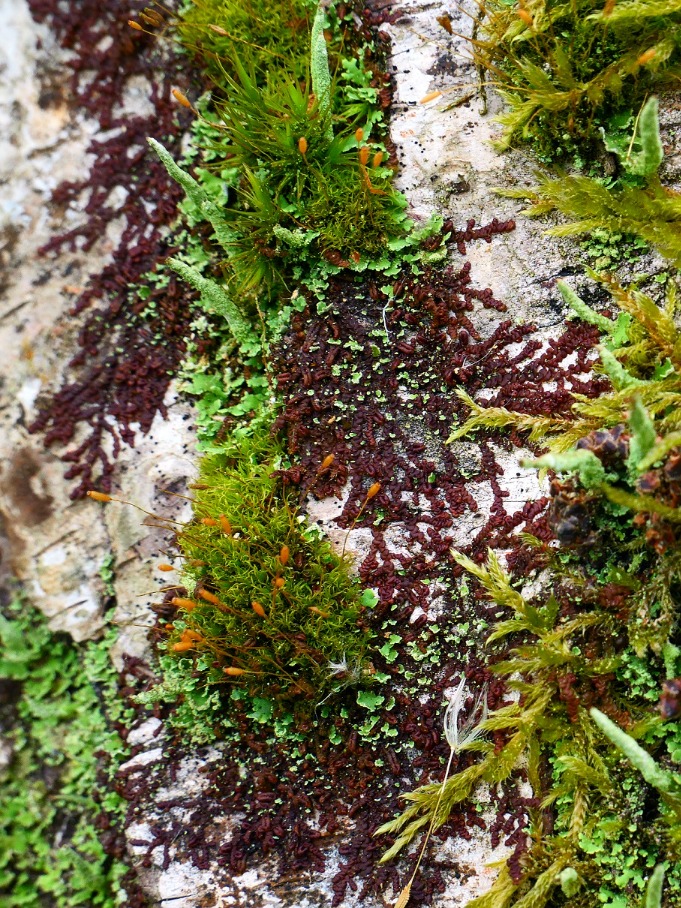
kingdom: Plantae
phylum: Marchantiophyta
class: Jungermanniopsida
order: Porellales
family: Frullaniaceae
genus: Frullania
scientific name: Frullania dilatata
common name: Mat bronzemos
